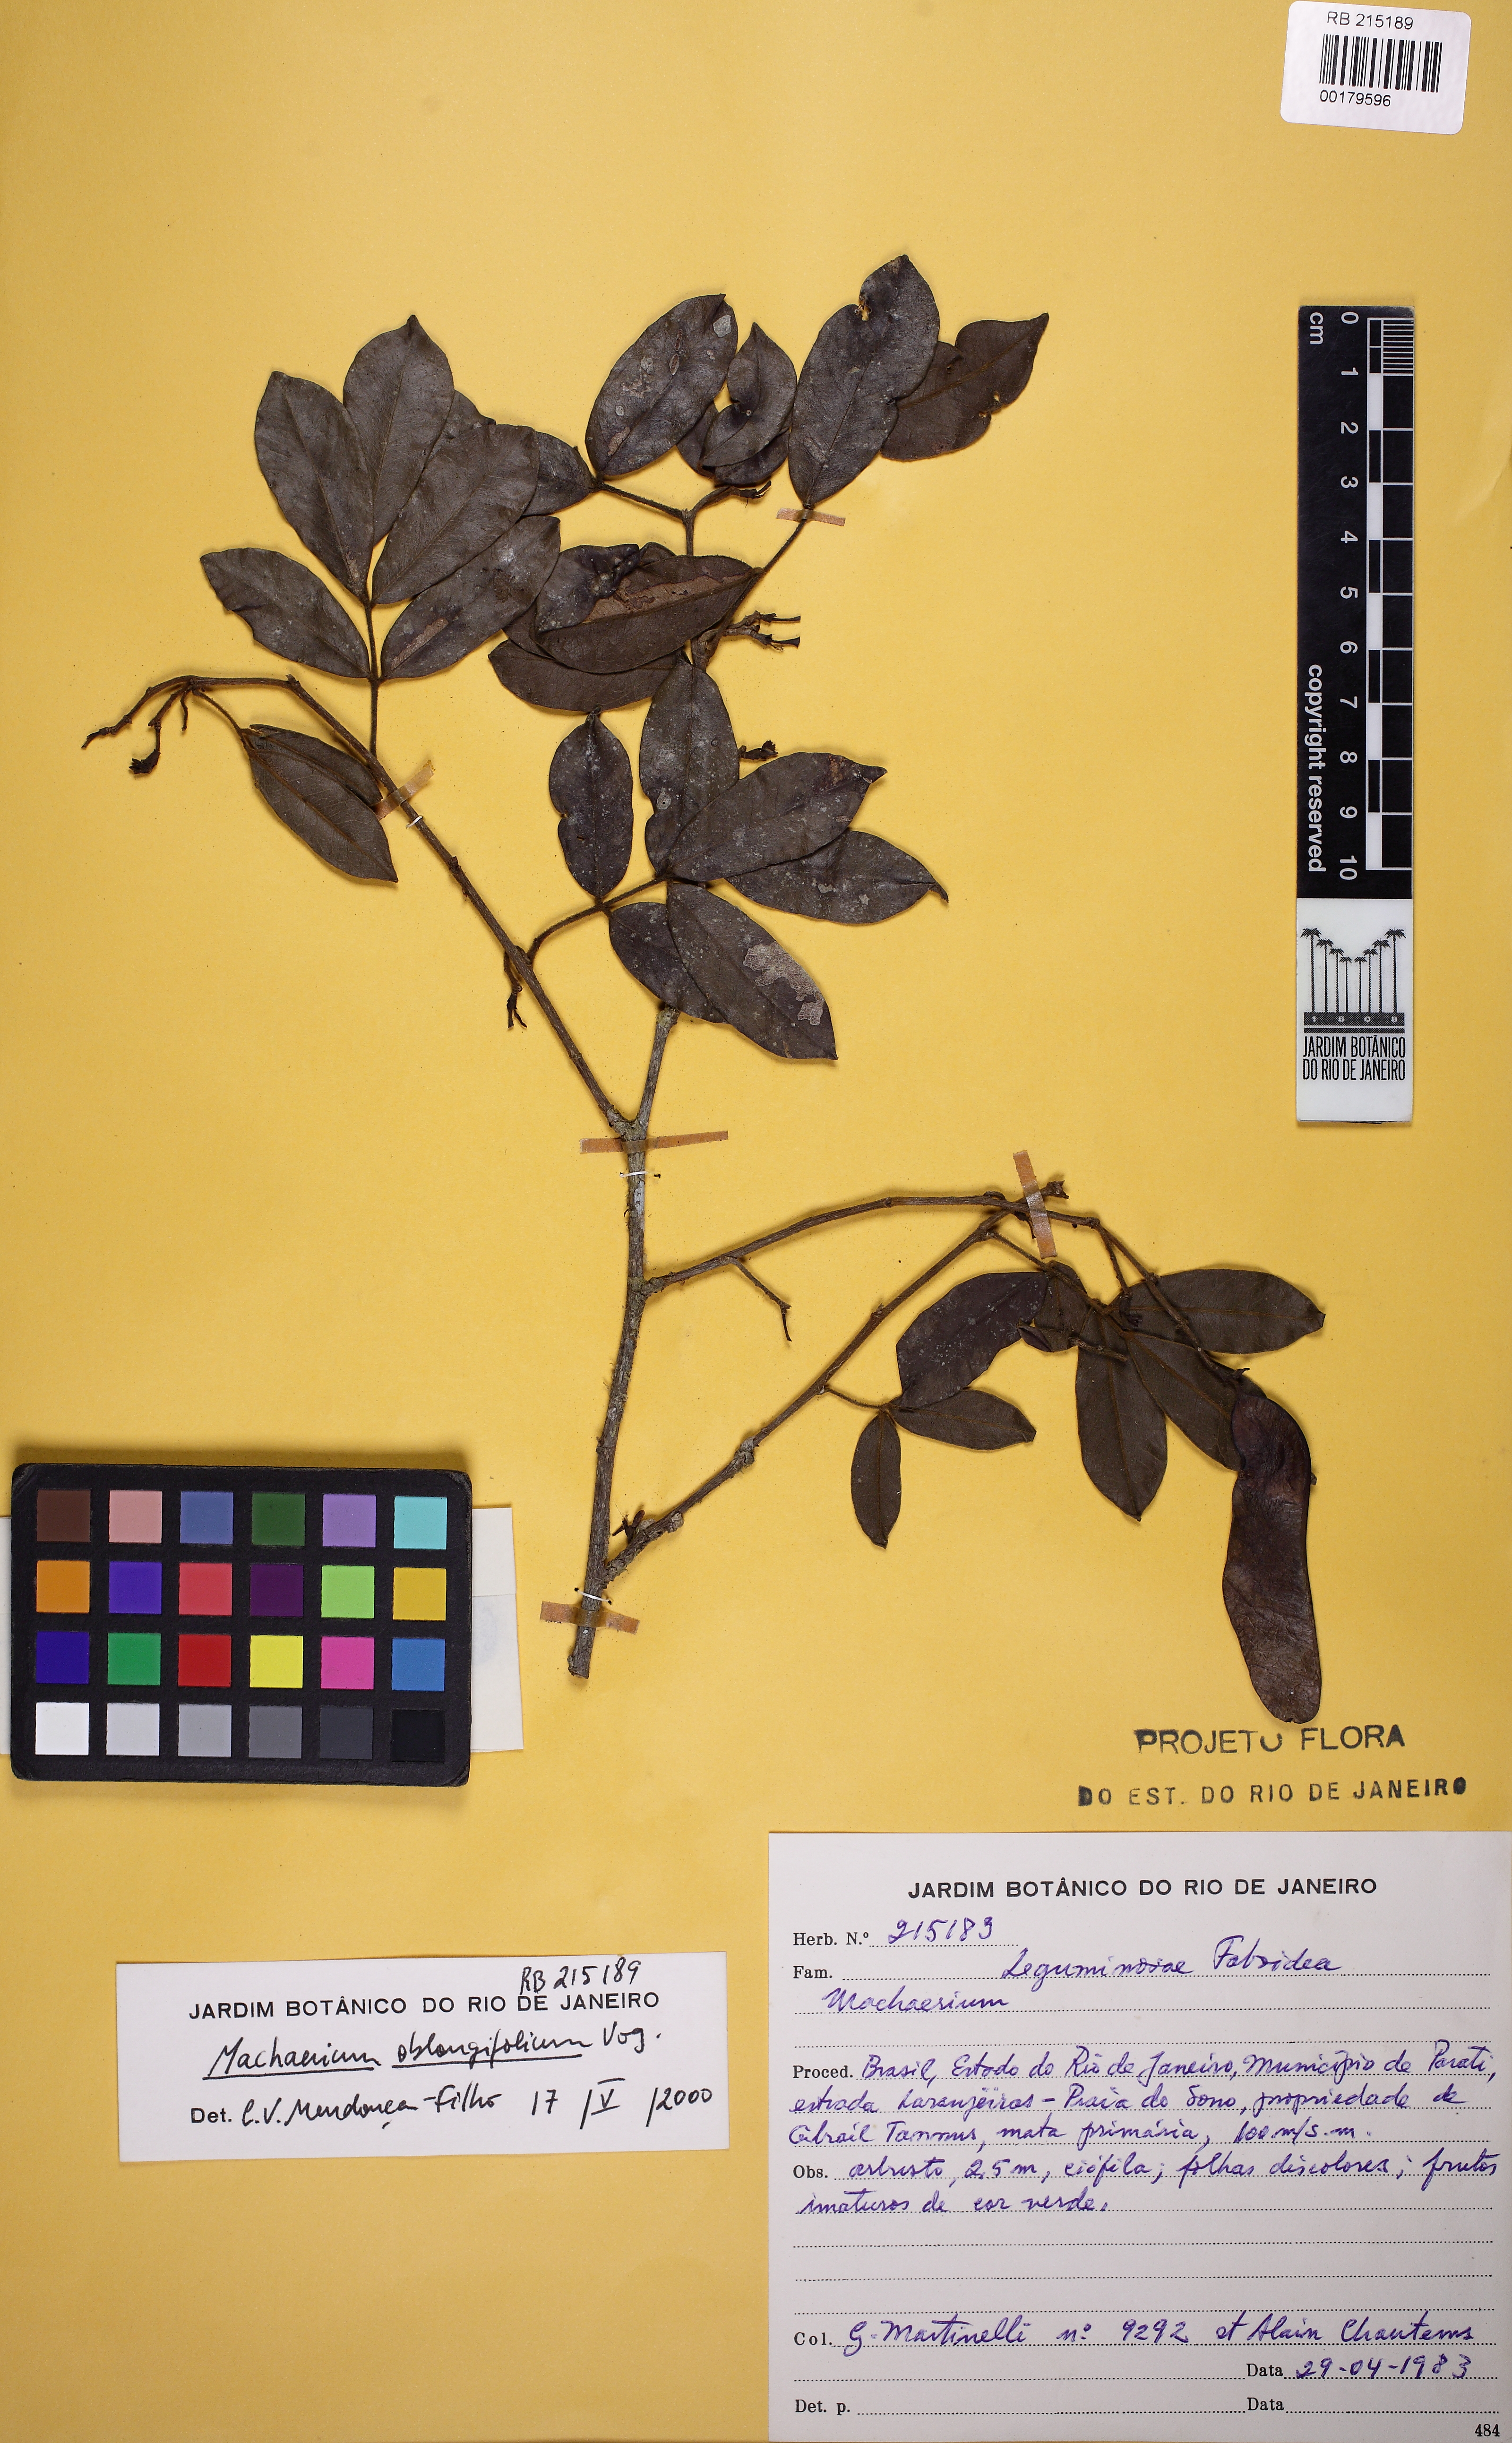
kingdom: Plantae
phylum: Tracheophyta
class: Magnoliopsida
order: Fabales
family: Fabaceae
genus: Machaerium
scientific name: Machaerium oblongifolium
